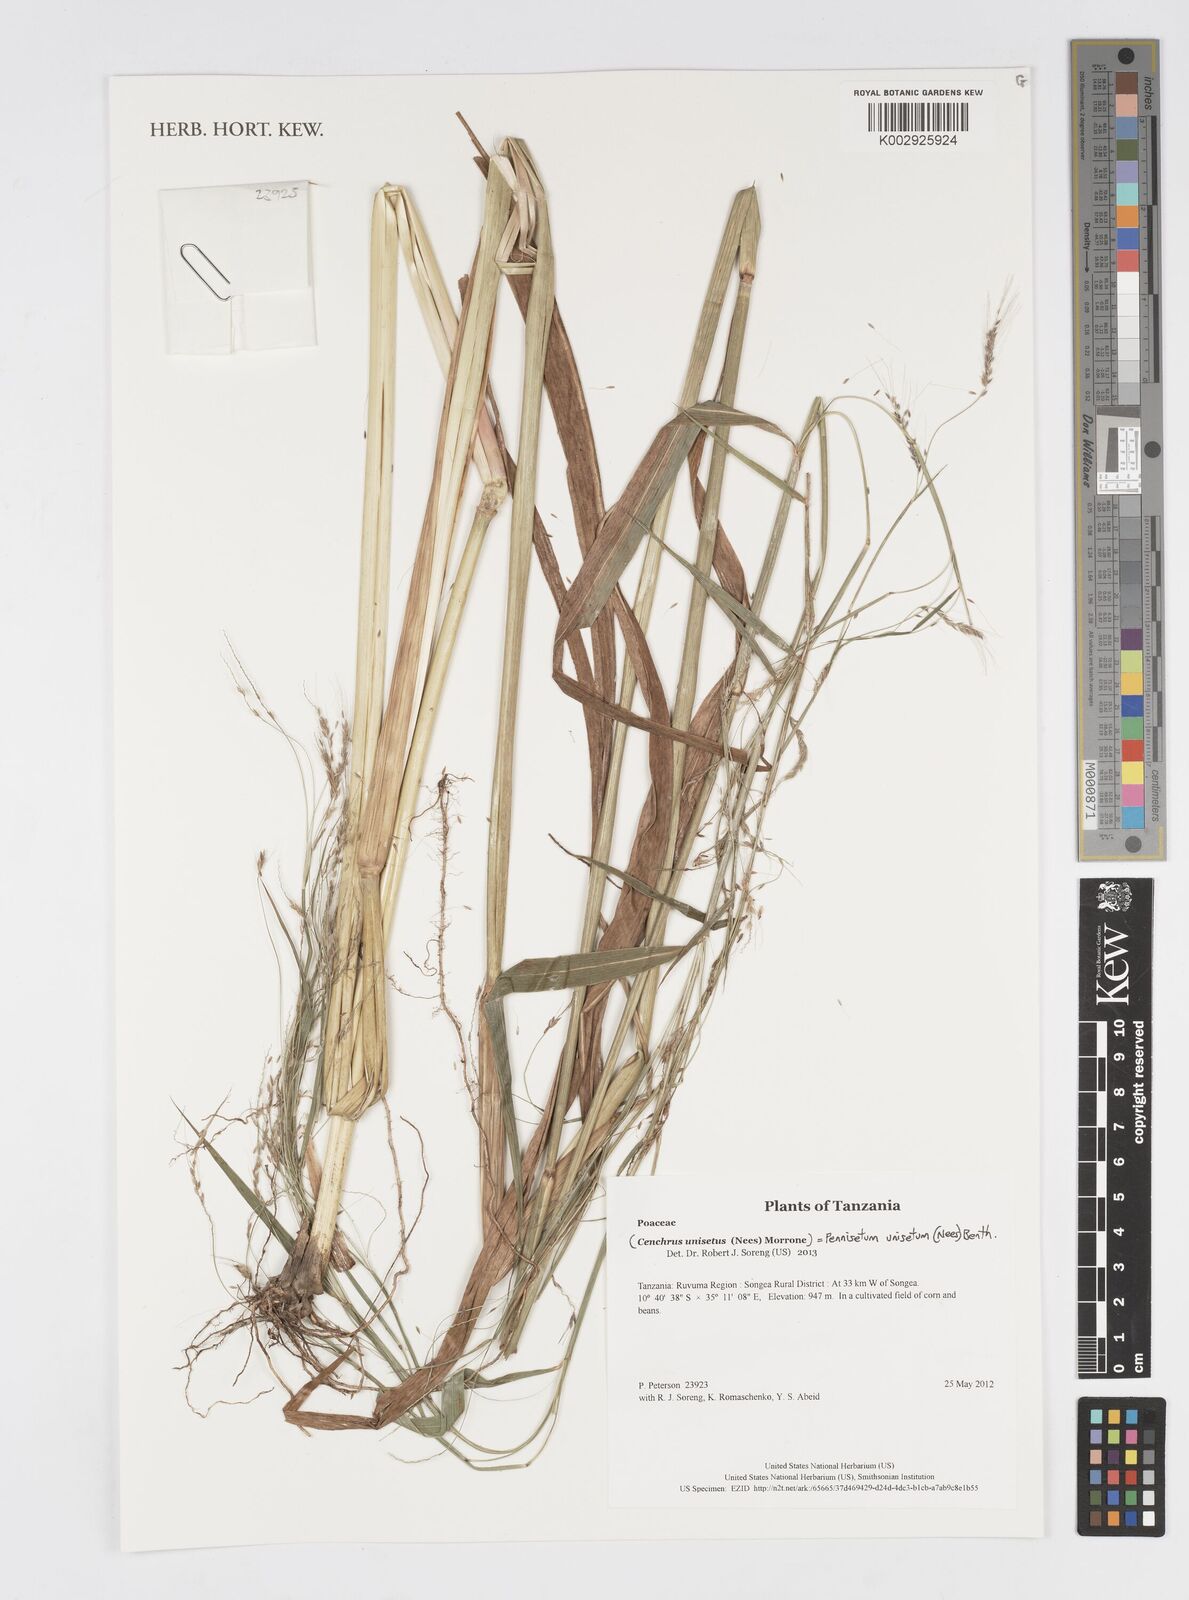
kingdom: Plantae
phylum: Tracheophyta
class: Liliopsida
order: Poales
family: Poaceae
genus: Cenchrus
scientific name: Cenchrus unisetus
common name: Natal grass
